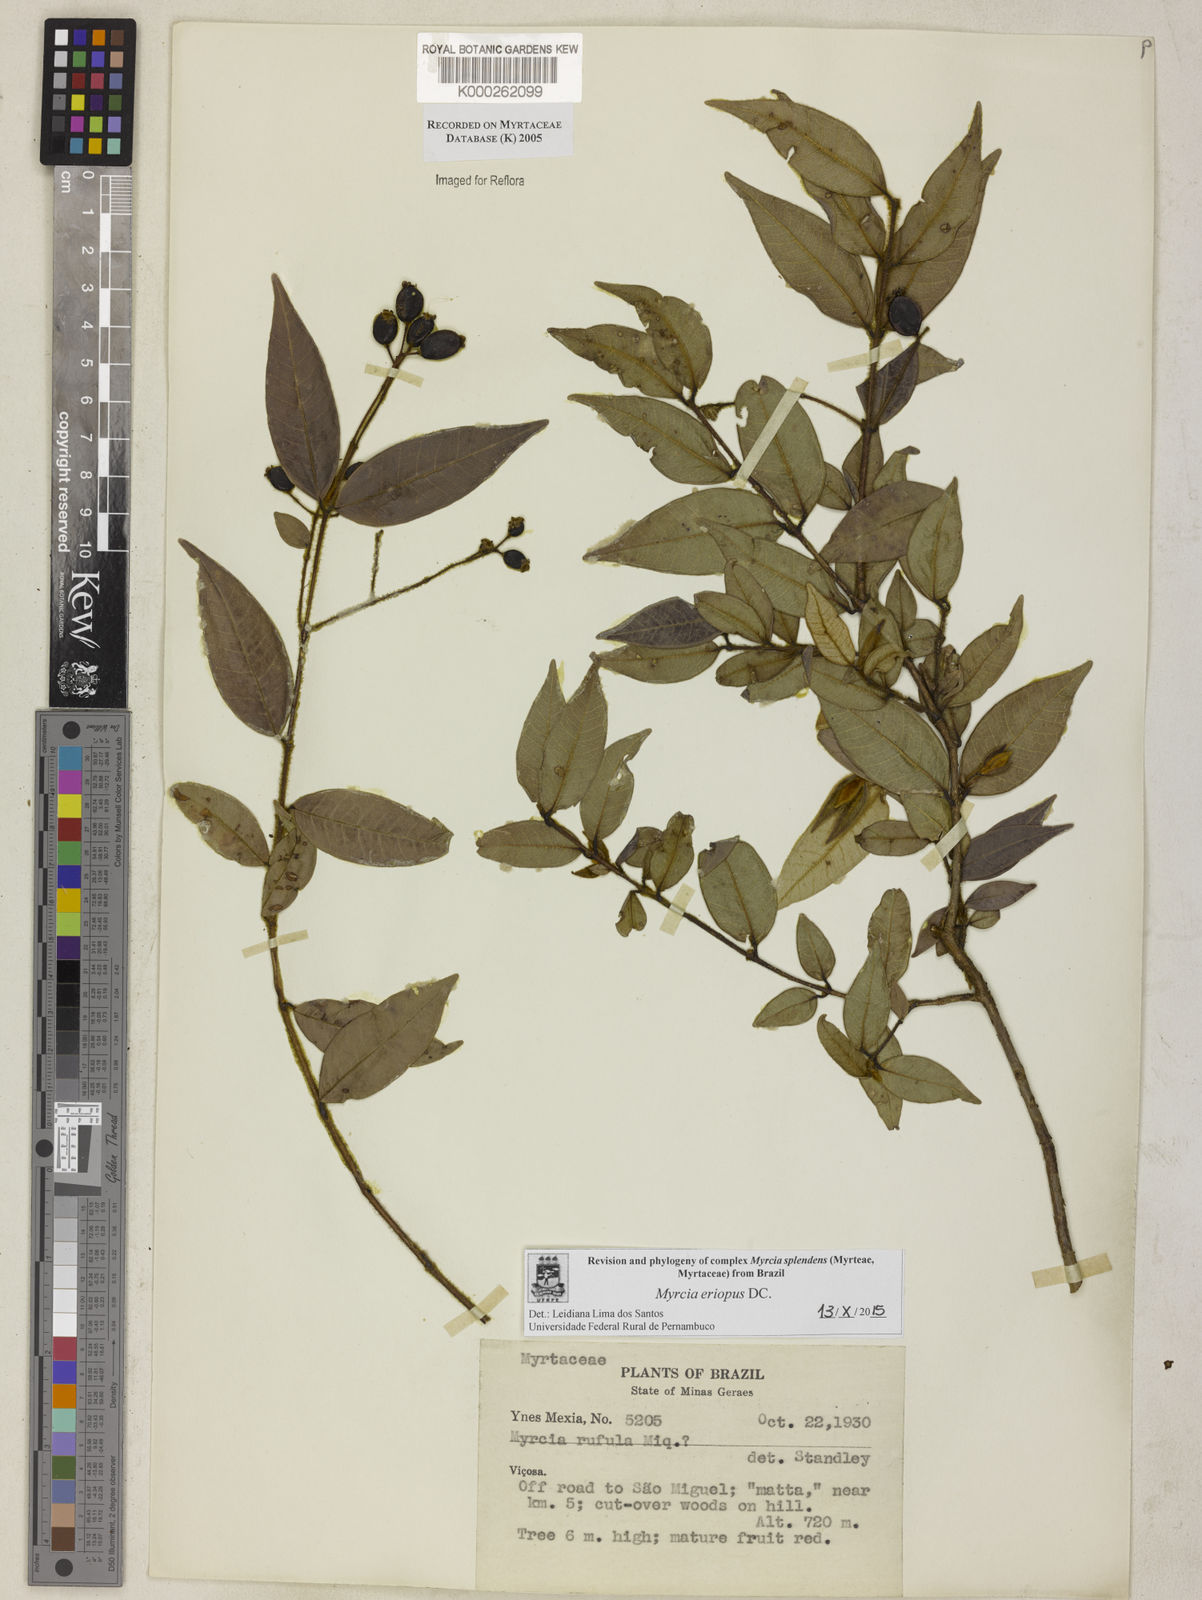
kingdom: Plantae
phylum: Tracheophyta
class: Magnoliopsida
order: Myrtales
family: Myrtaceae
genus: Myrcia
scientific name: Myrcia splendens
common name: Surinam cherry
